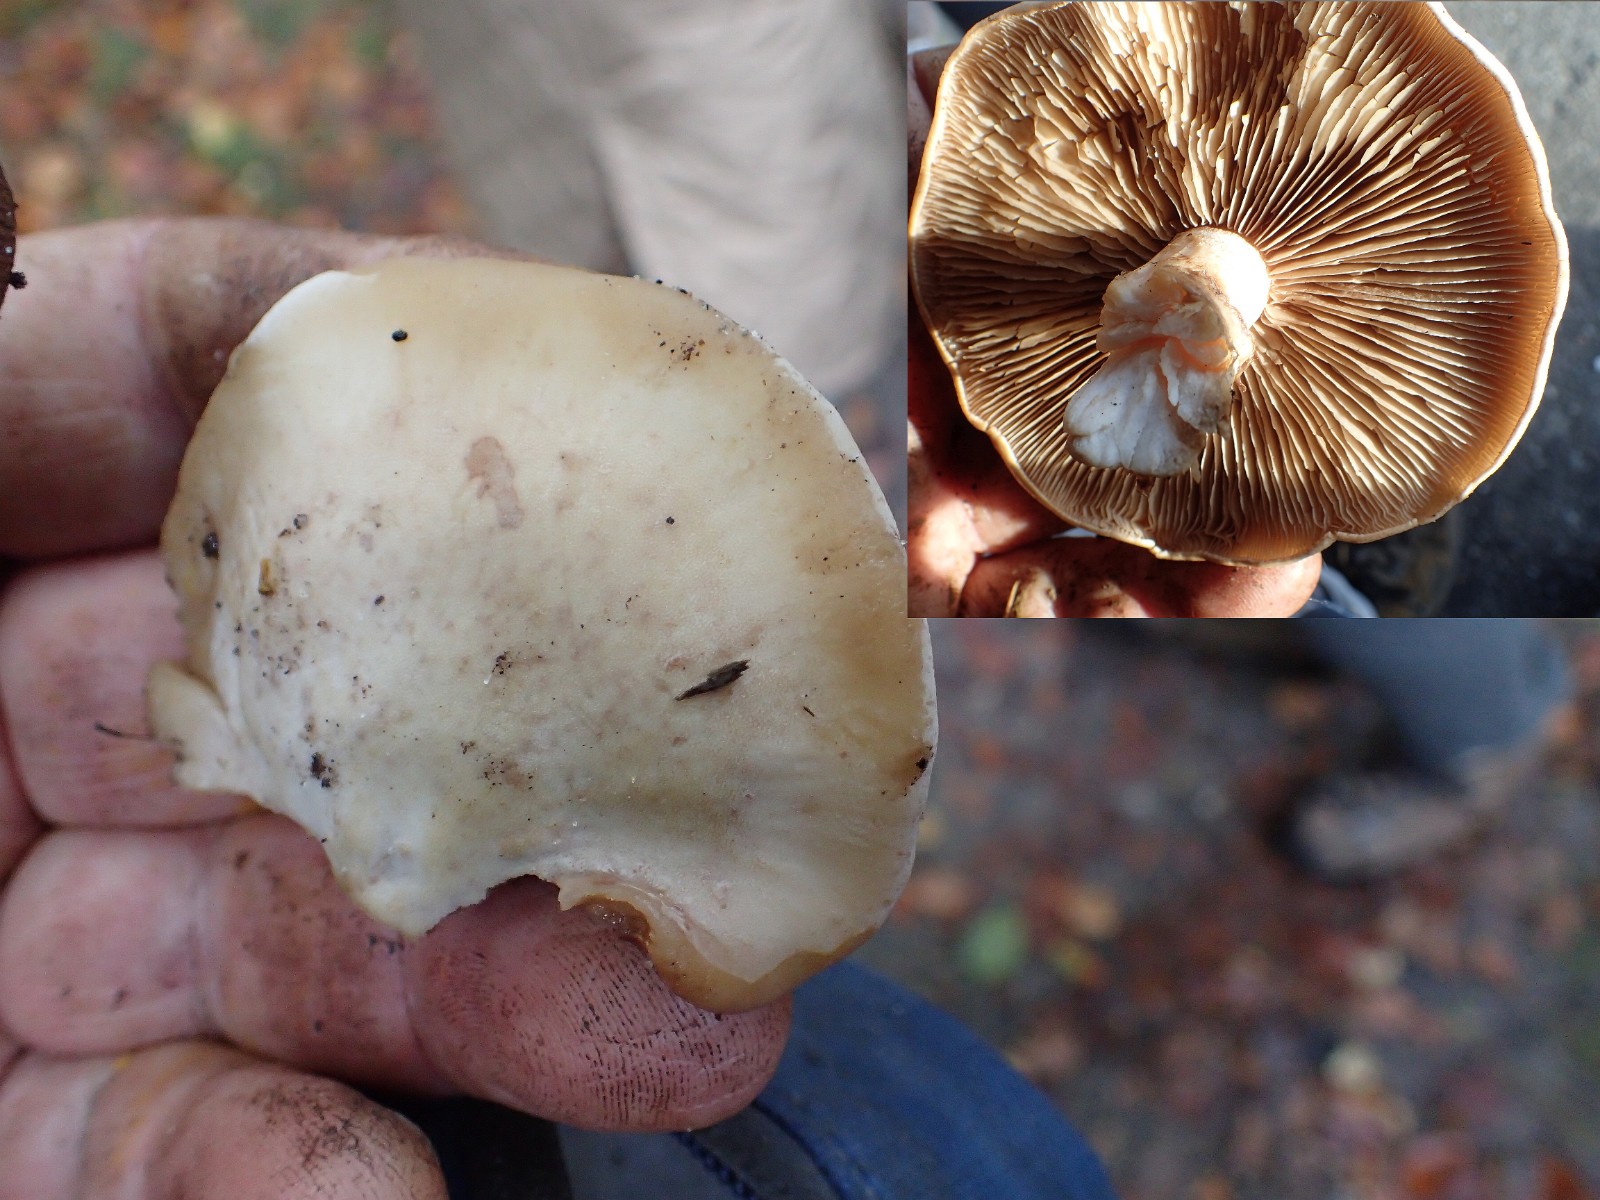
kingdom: Fungi
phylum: Basidiomycota
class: Agaricomycetes
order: Agaricales
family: Hymenogastraceae
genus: Hebeloma
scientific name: Hebeloma
